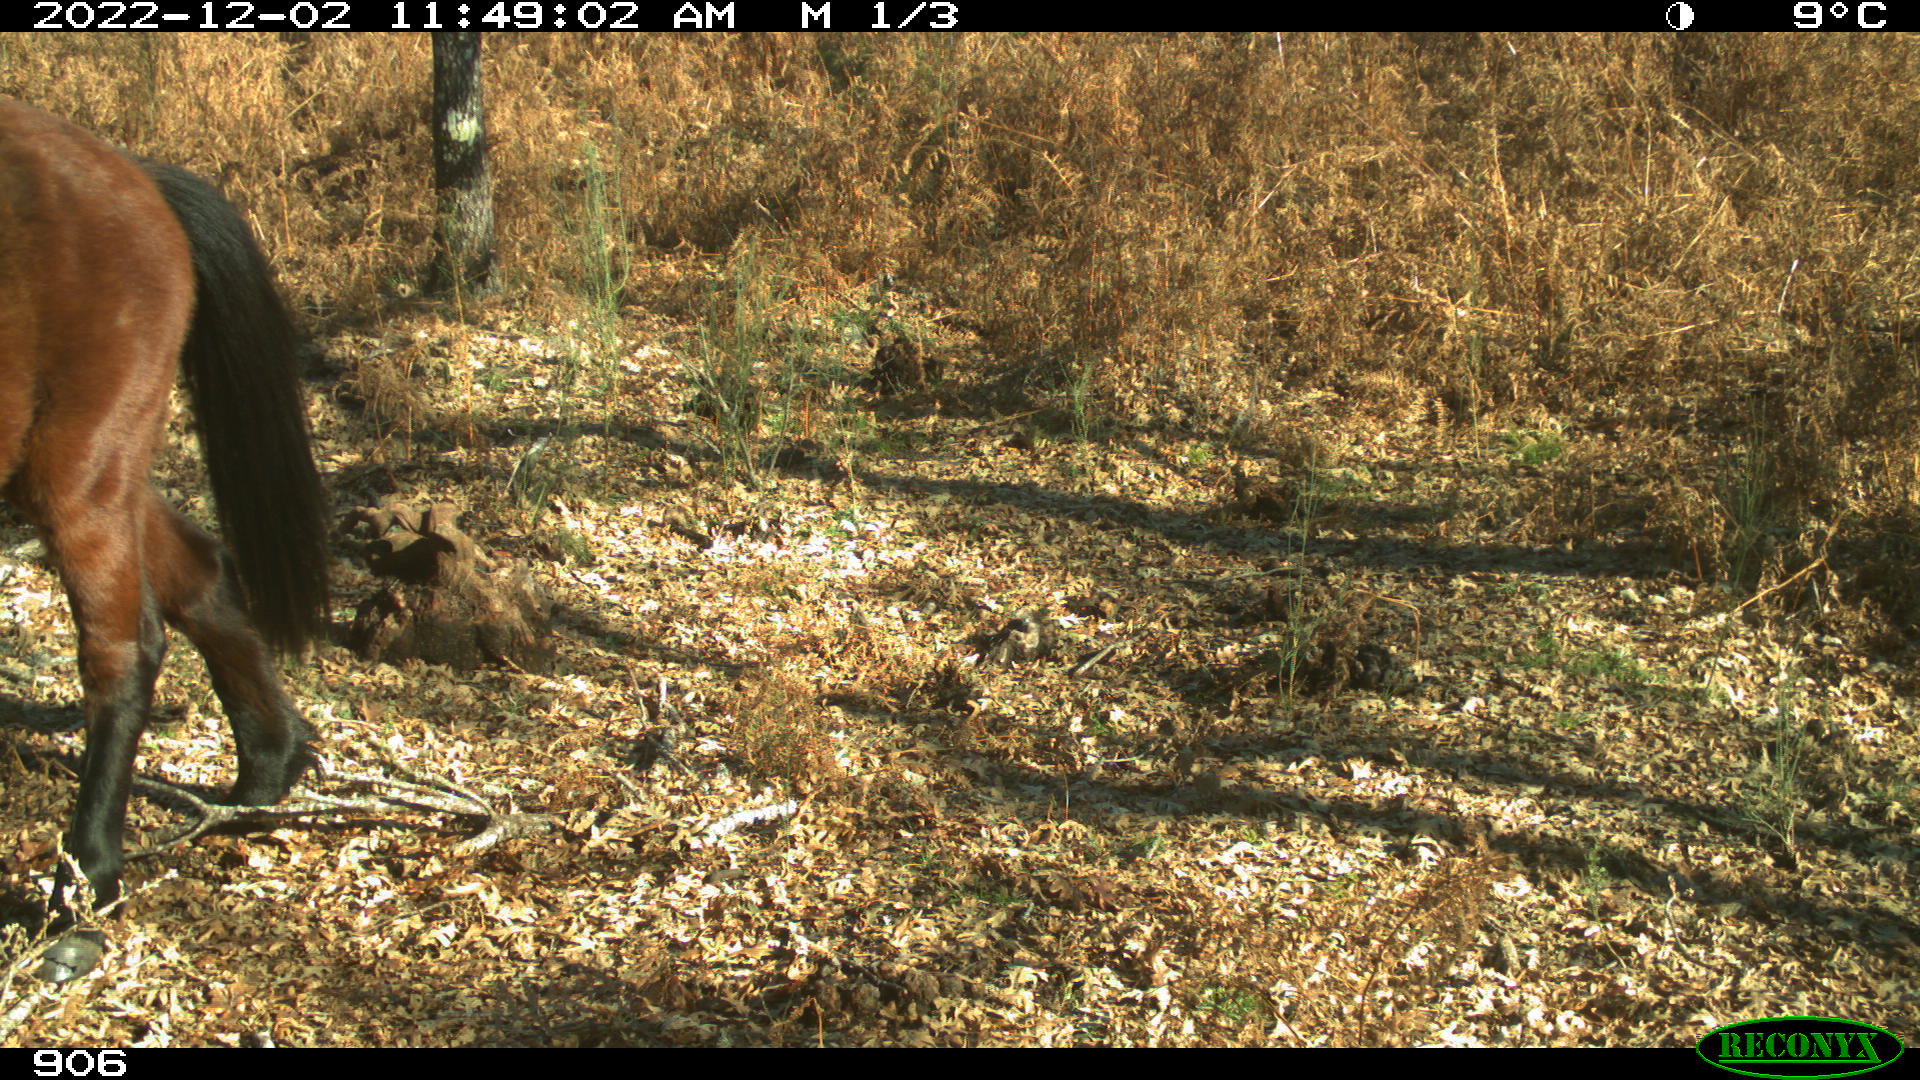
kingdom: Animalia
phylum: Chordata
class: Mammalia
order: Perissodactyla
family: Equidae
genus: Equus
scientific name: Equus caballus
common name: Horse
